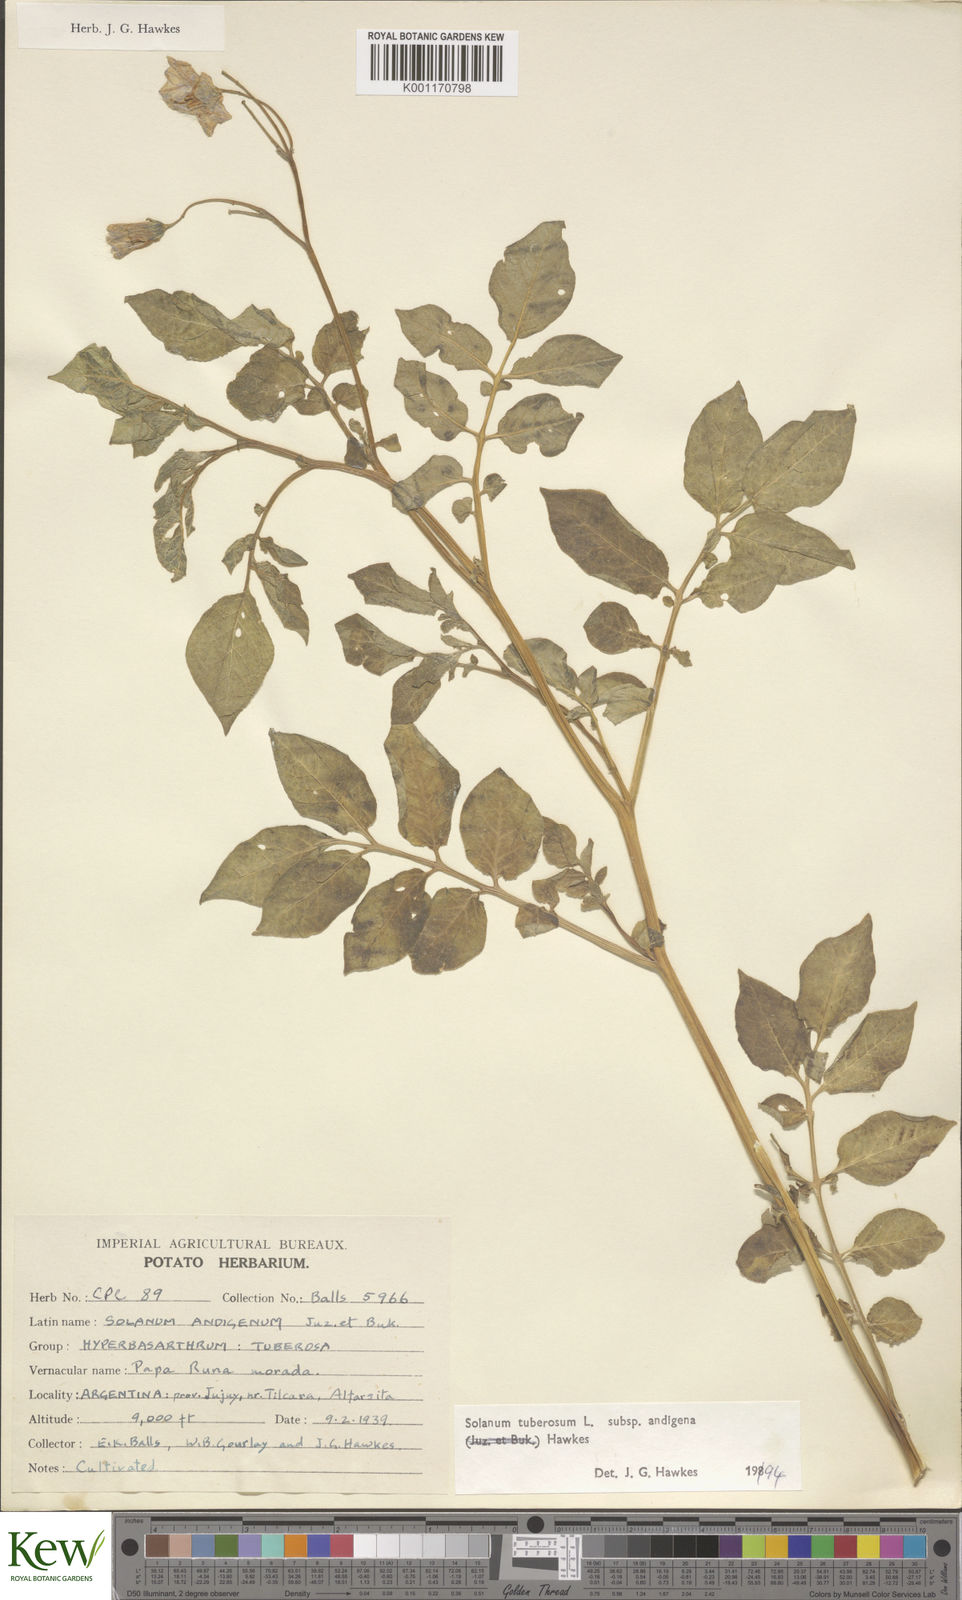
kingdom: Plantae
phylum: Tracheophyta
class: Magnoliopsida
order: Solanales
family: Solanaceae
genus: Solanum
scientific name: Solanum tuberosum
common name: Potato
